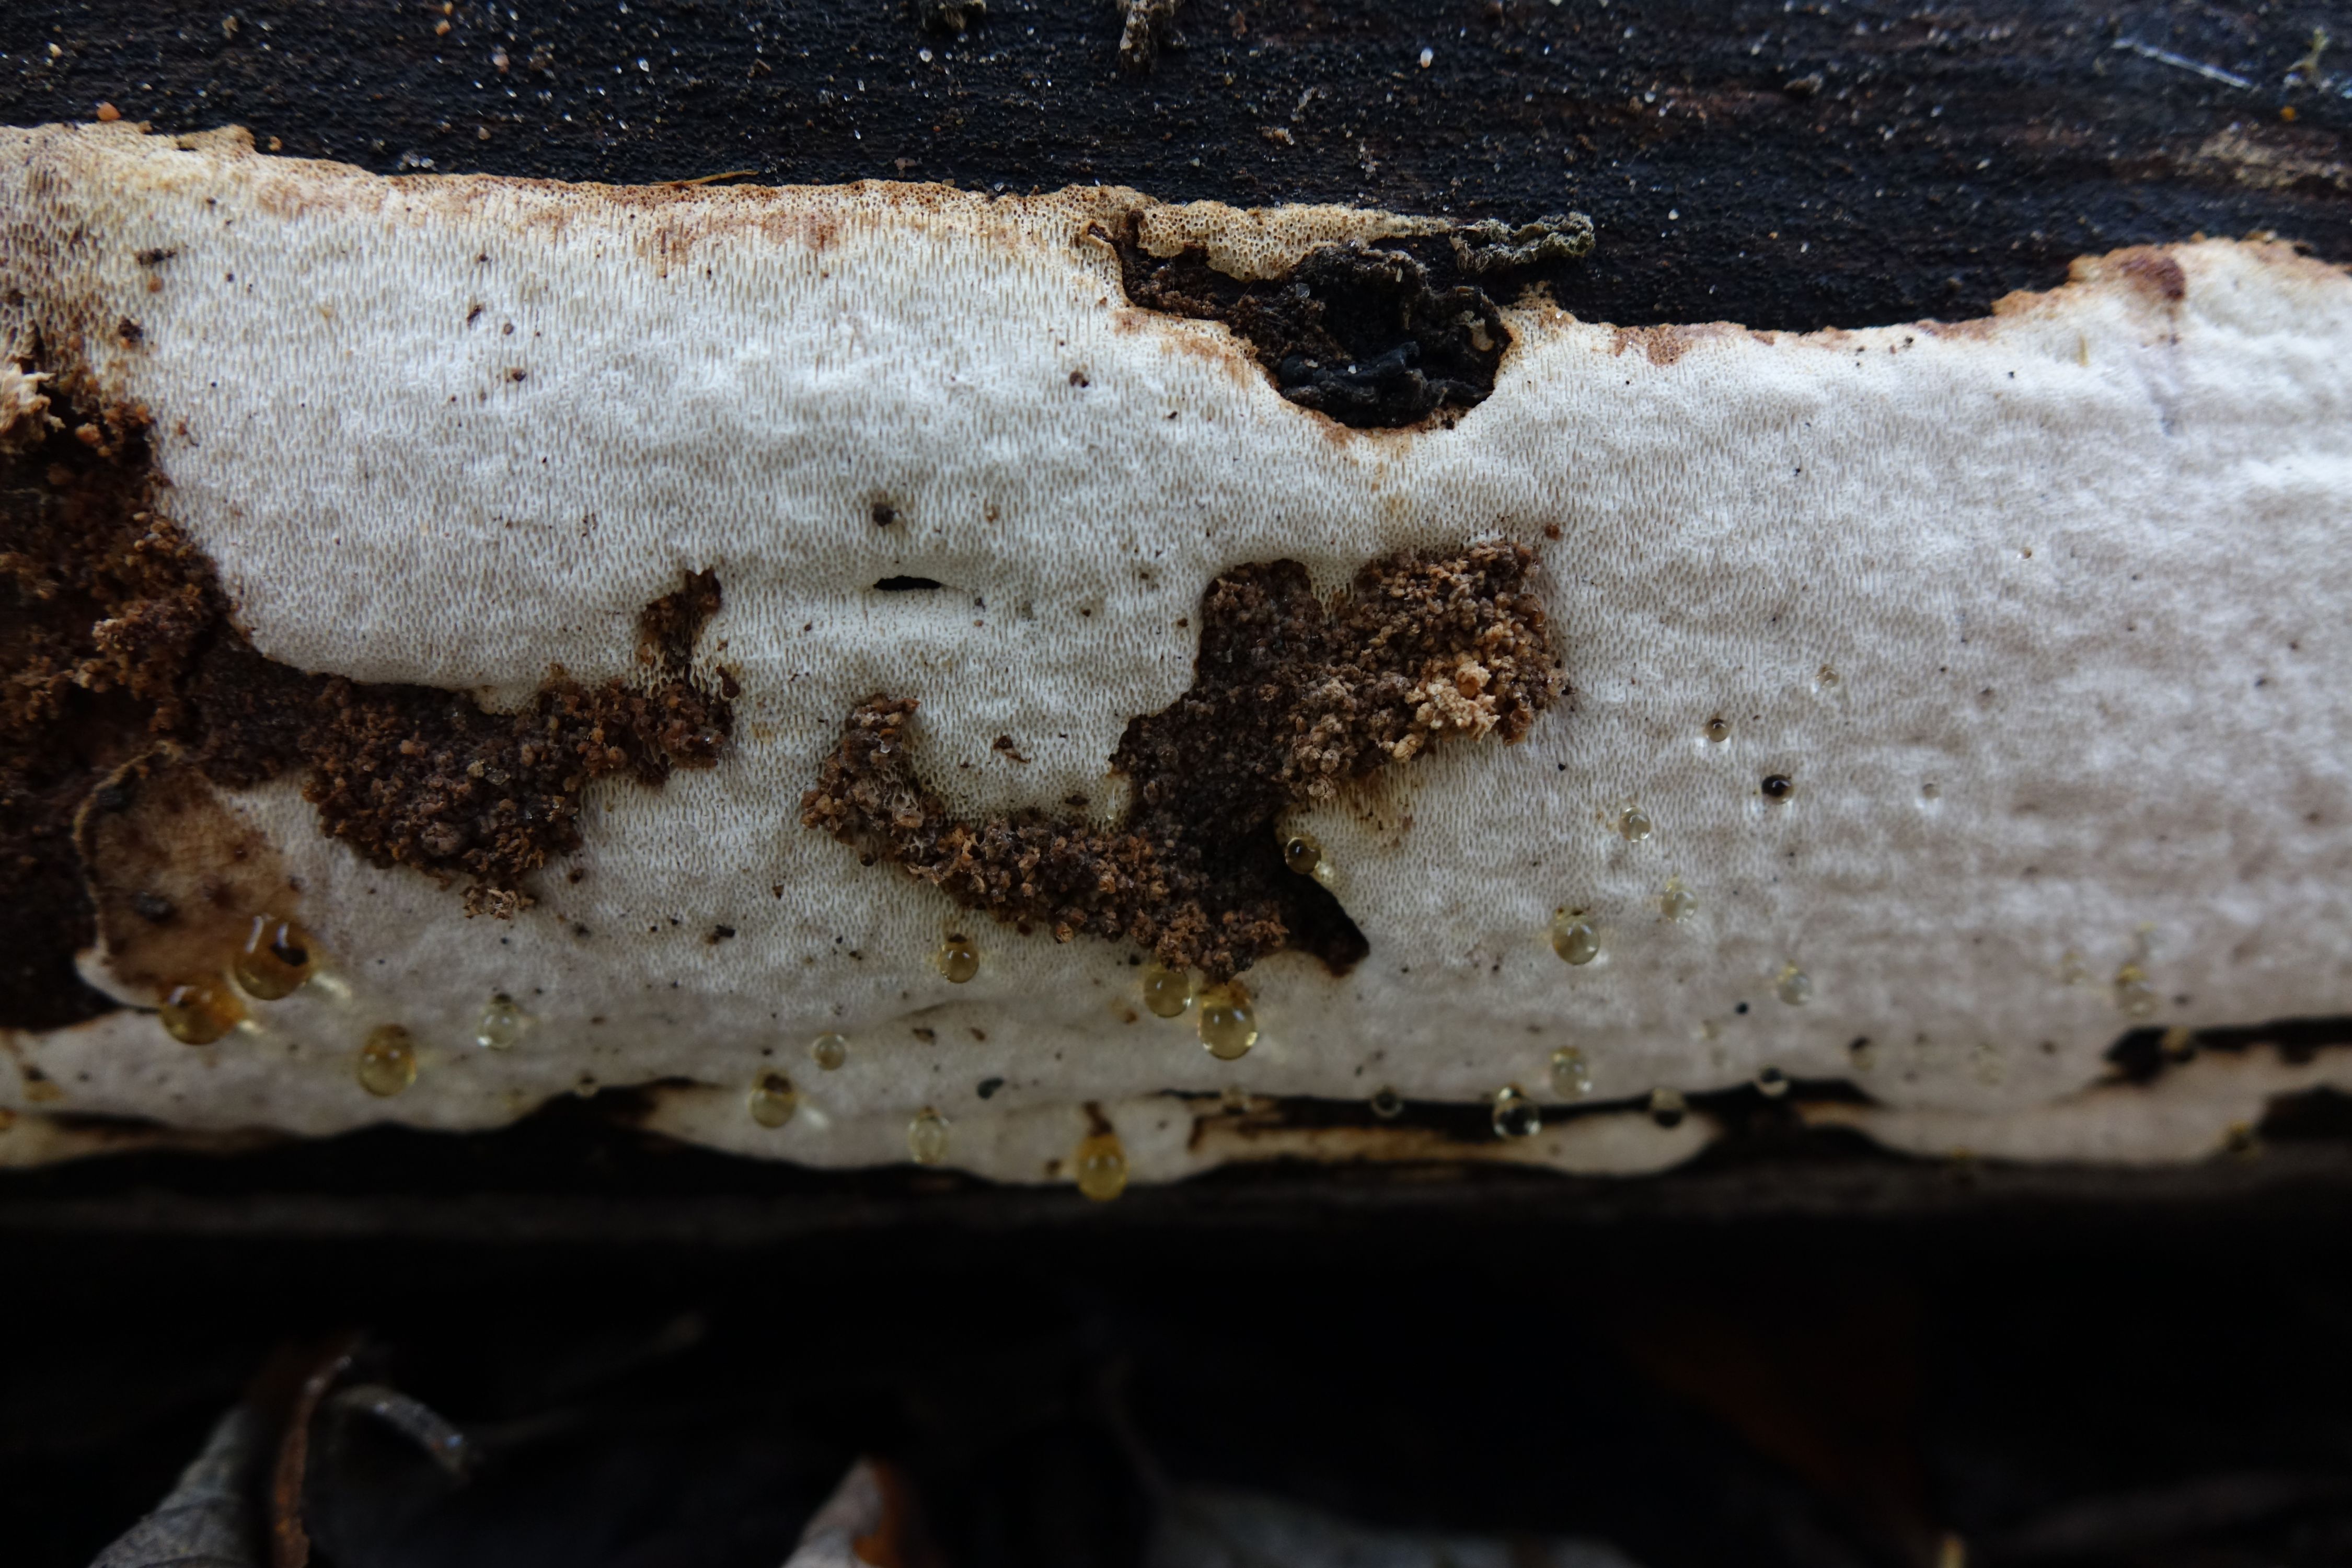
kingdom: Fungi
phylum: Basidiomycota
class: Agaricomycetes
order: Polyporales
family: Fomitopsidaceae
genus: Neoantrodia
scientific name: Neoantrodia leucaena
